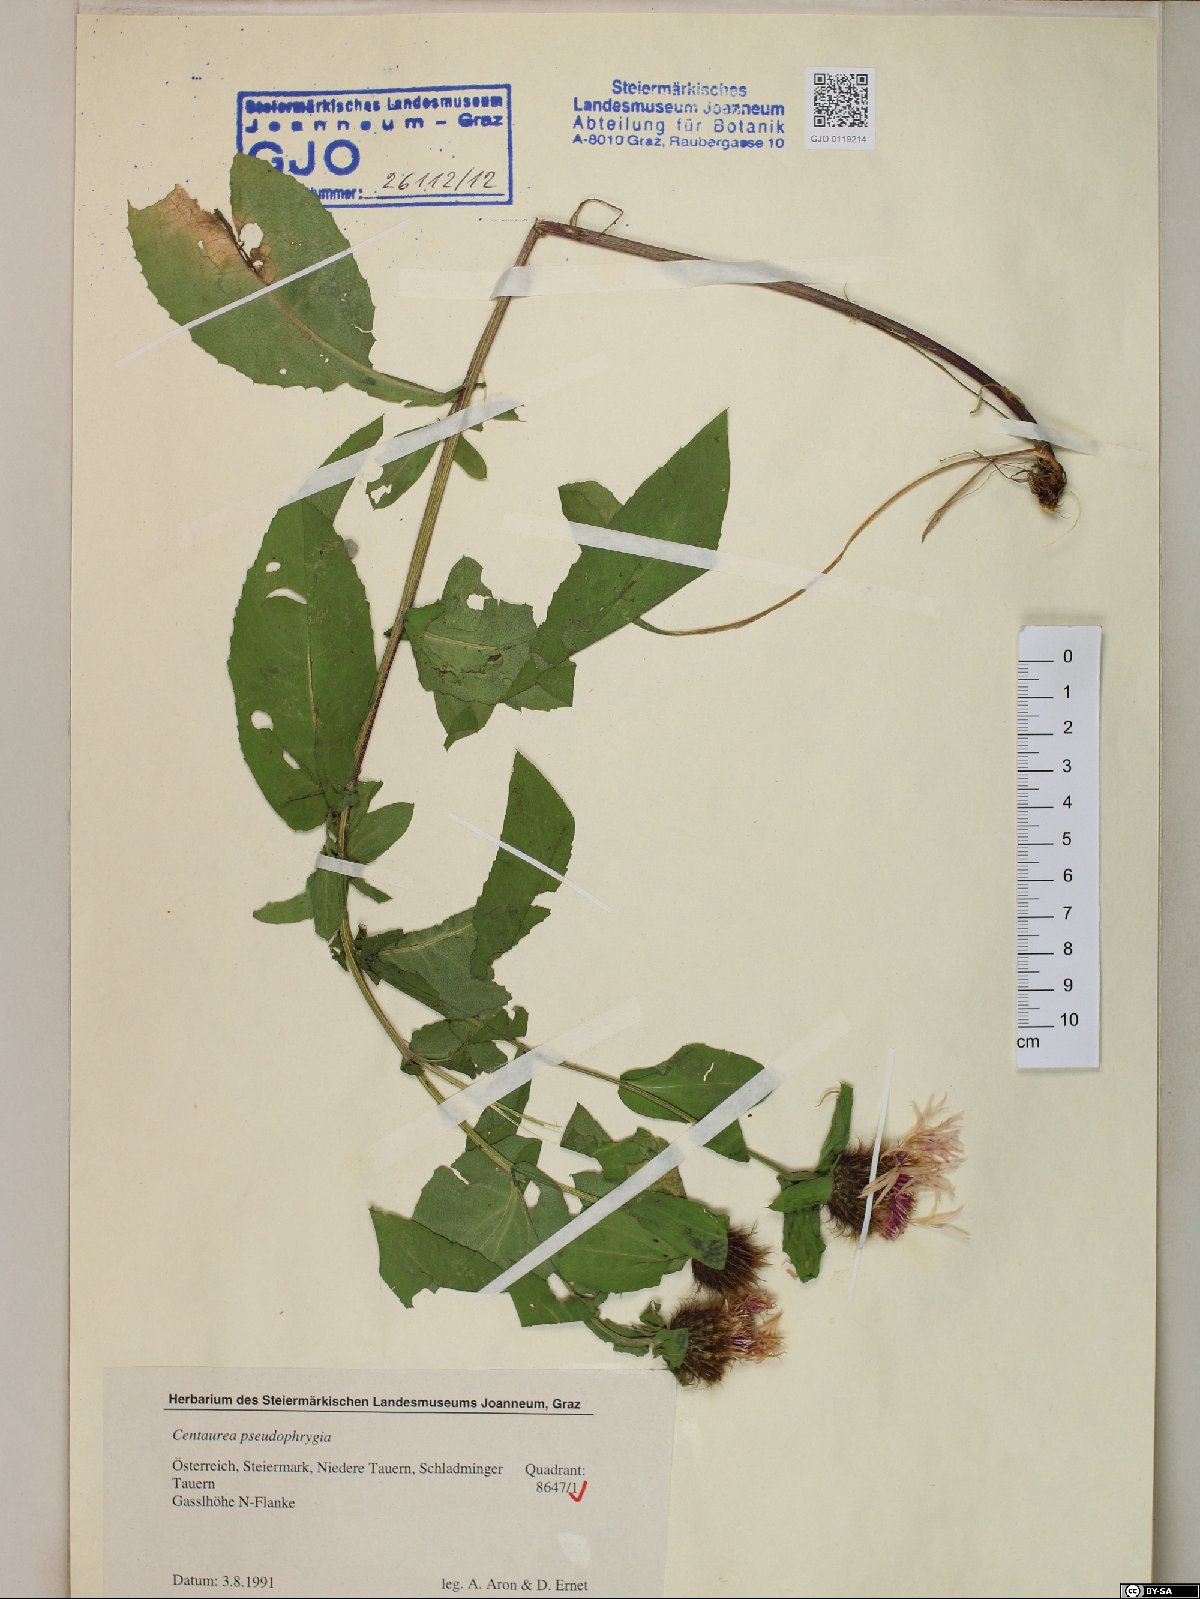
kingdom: Plantae
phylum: Tracheophyta
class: Magnoliopsida
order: Asterales
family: Asteraceae
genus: Centaurea
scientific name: Centaurea pseudophrygia
